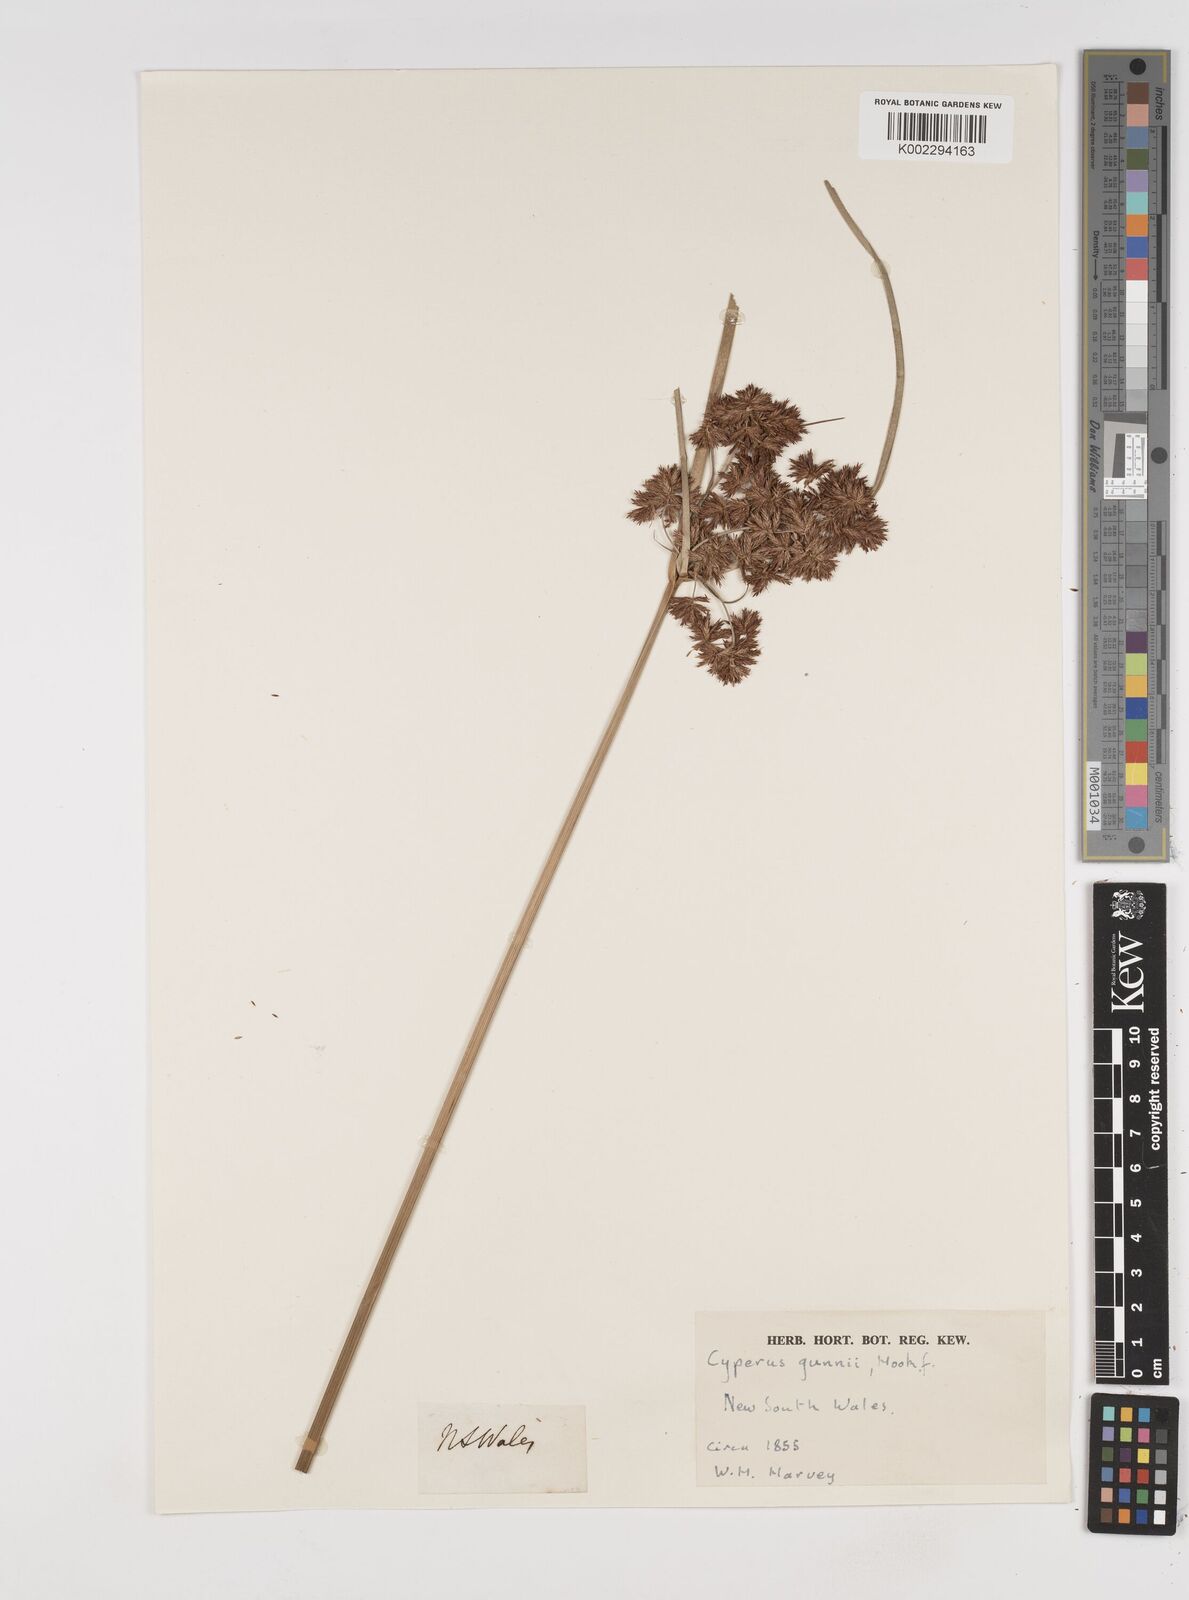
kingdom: Plantae
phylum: Tracheophyta
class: Liliopsida
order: Poales
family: Cyperaceae
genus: Cyperus
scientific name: Cyperus gunnii
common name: Flecked flat-sedge
